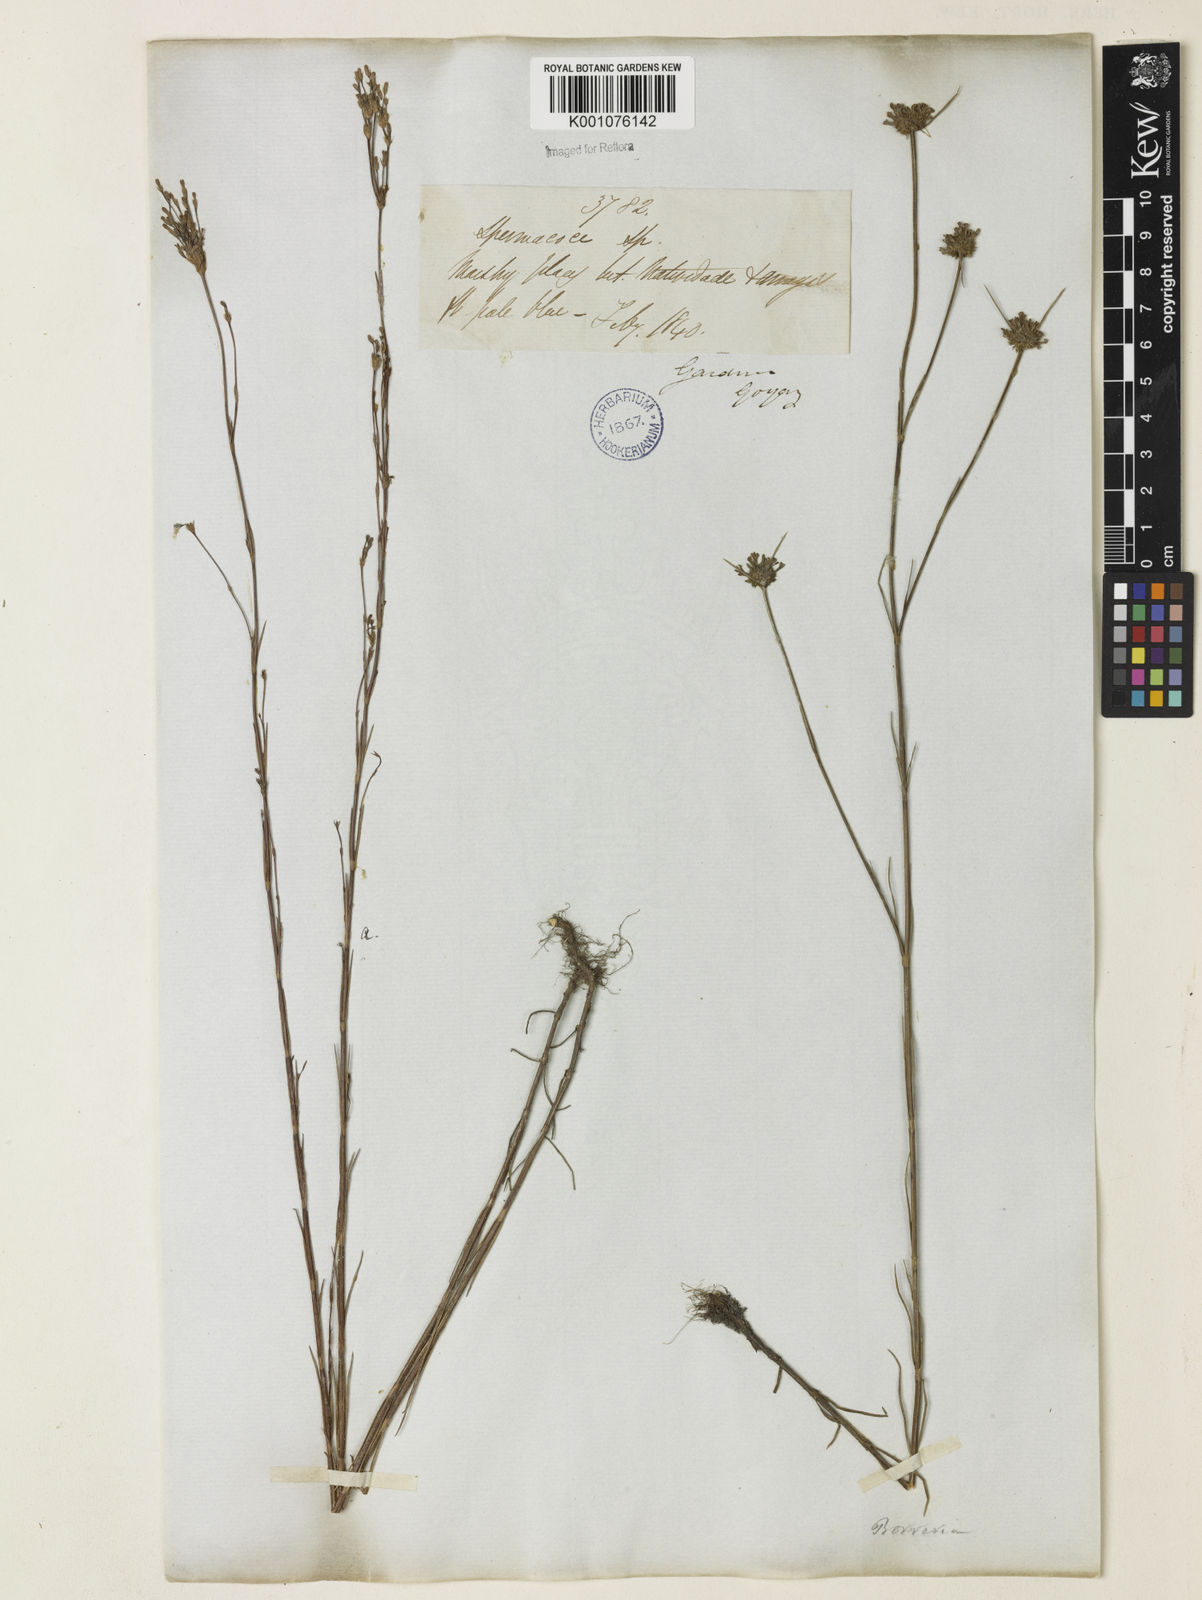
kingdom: Plantae
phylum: Tracheophyta
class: Magnoliopsida
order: Gentianales
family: Rubiaceae
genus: Spermacoce
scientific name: Spermacoce gracillima
